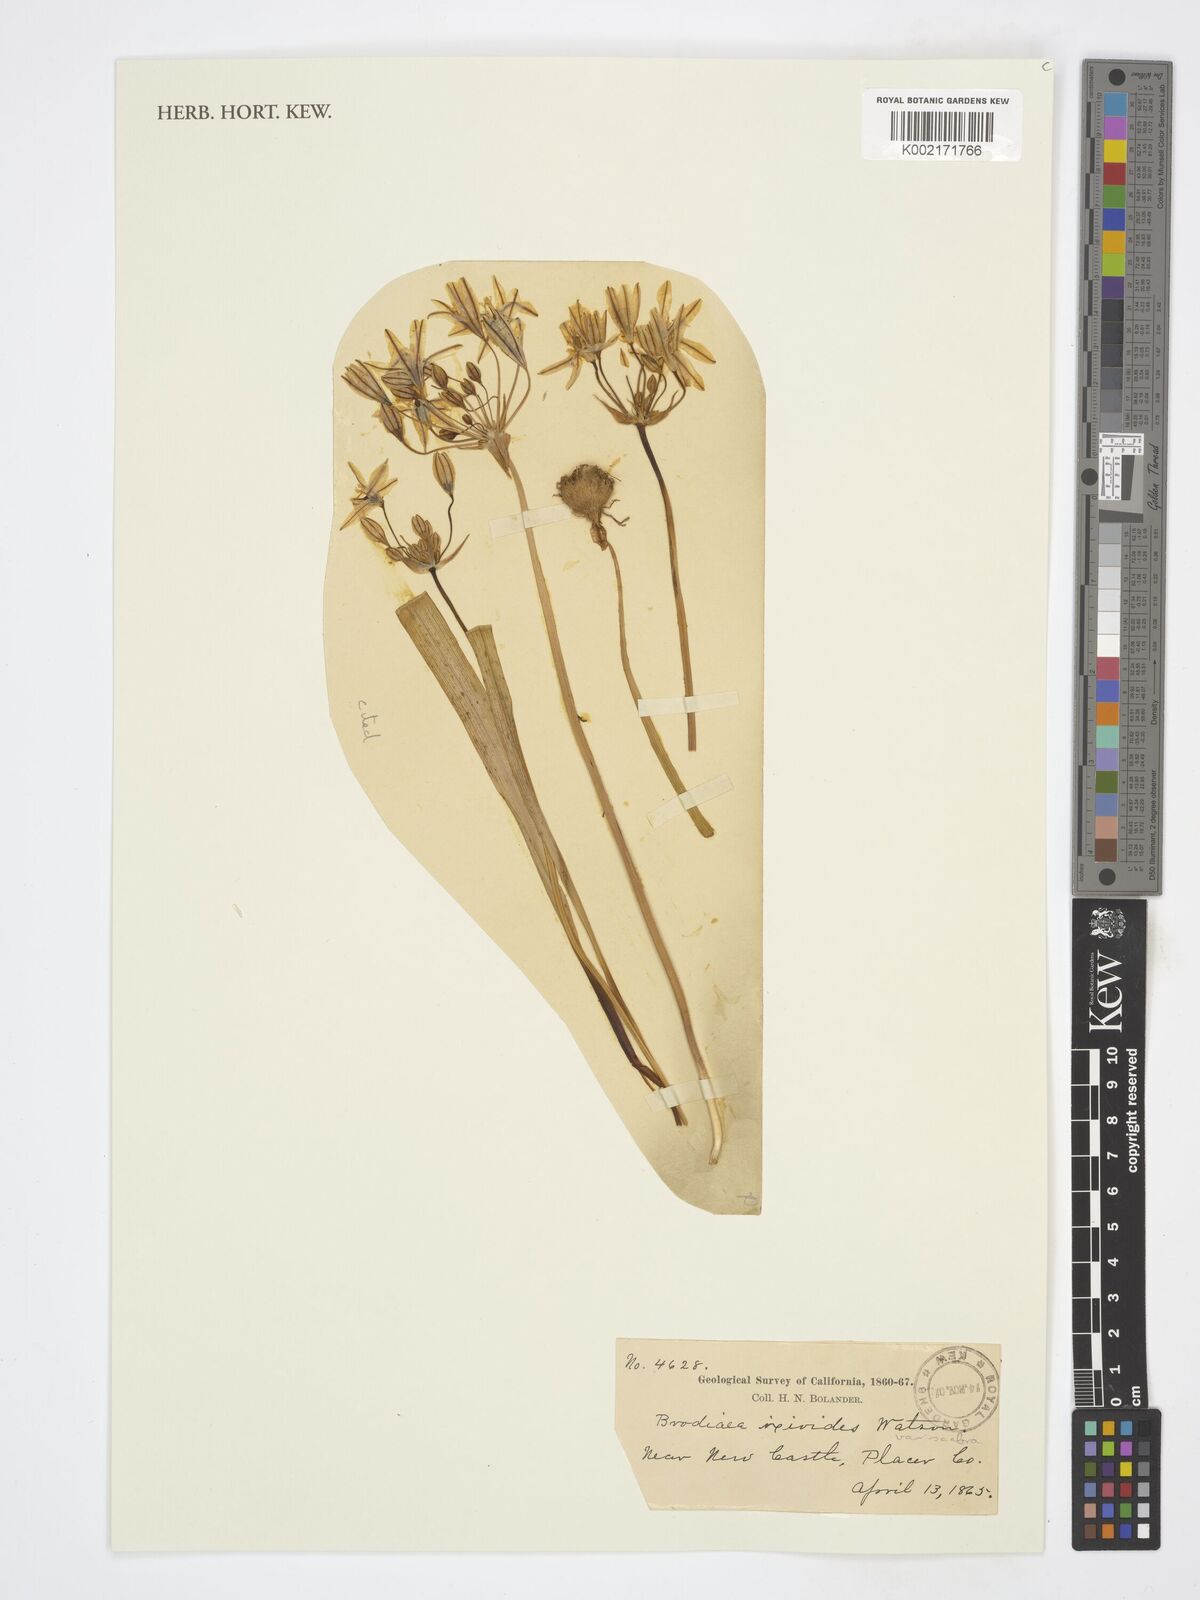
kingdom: Plantae
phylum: Tracheophyta
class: Liliopsida
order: Asparagales
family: Amaryllidaceae
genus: Leucocoryne
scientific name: Leucocoryne ixioides
